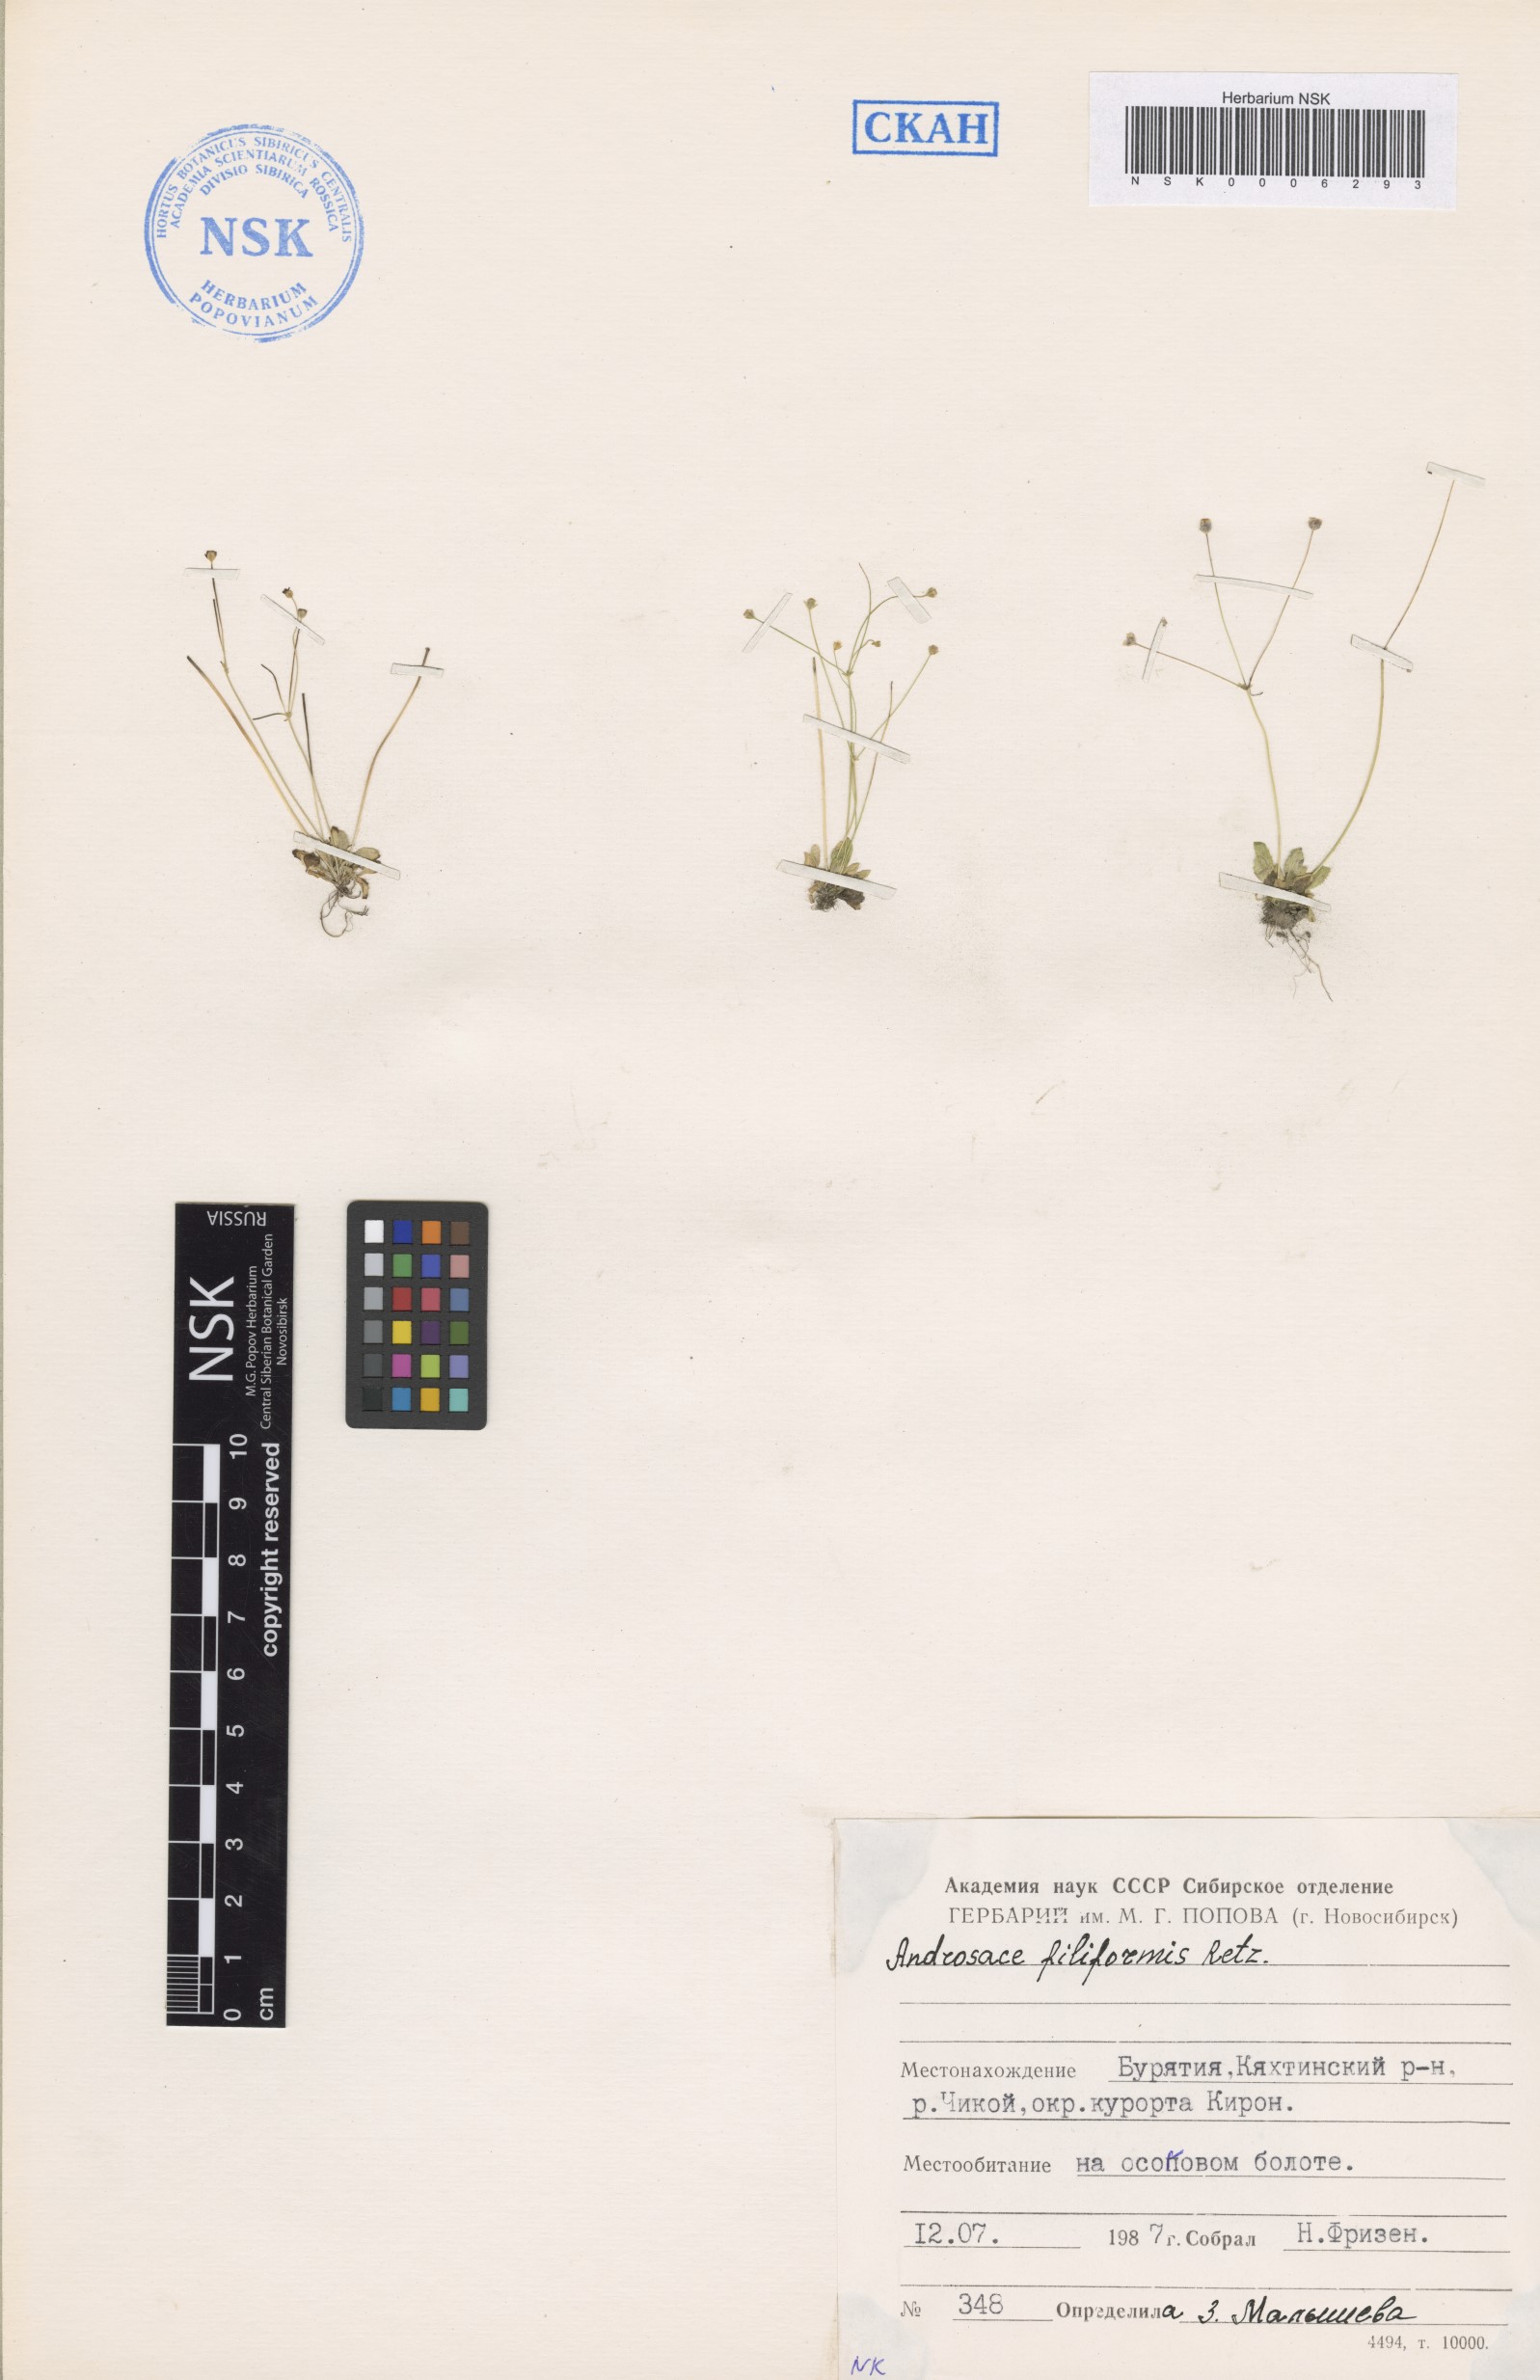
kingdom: Plantae
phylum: Tracheophyta
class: Magnoliopsida
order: Ericales
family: Primulaceae
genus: Androsace
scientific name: Androsace filiformis
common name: Filiform rock jasmine
